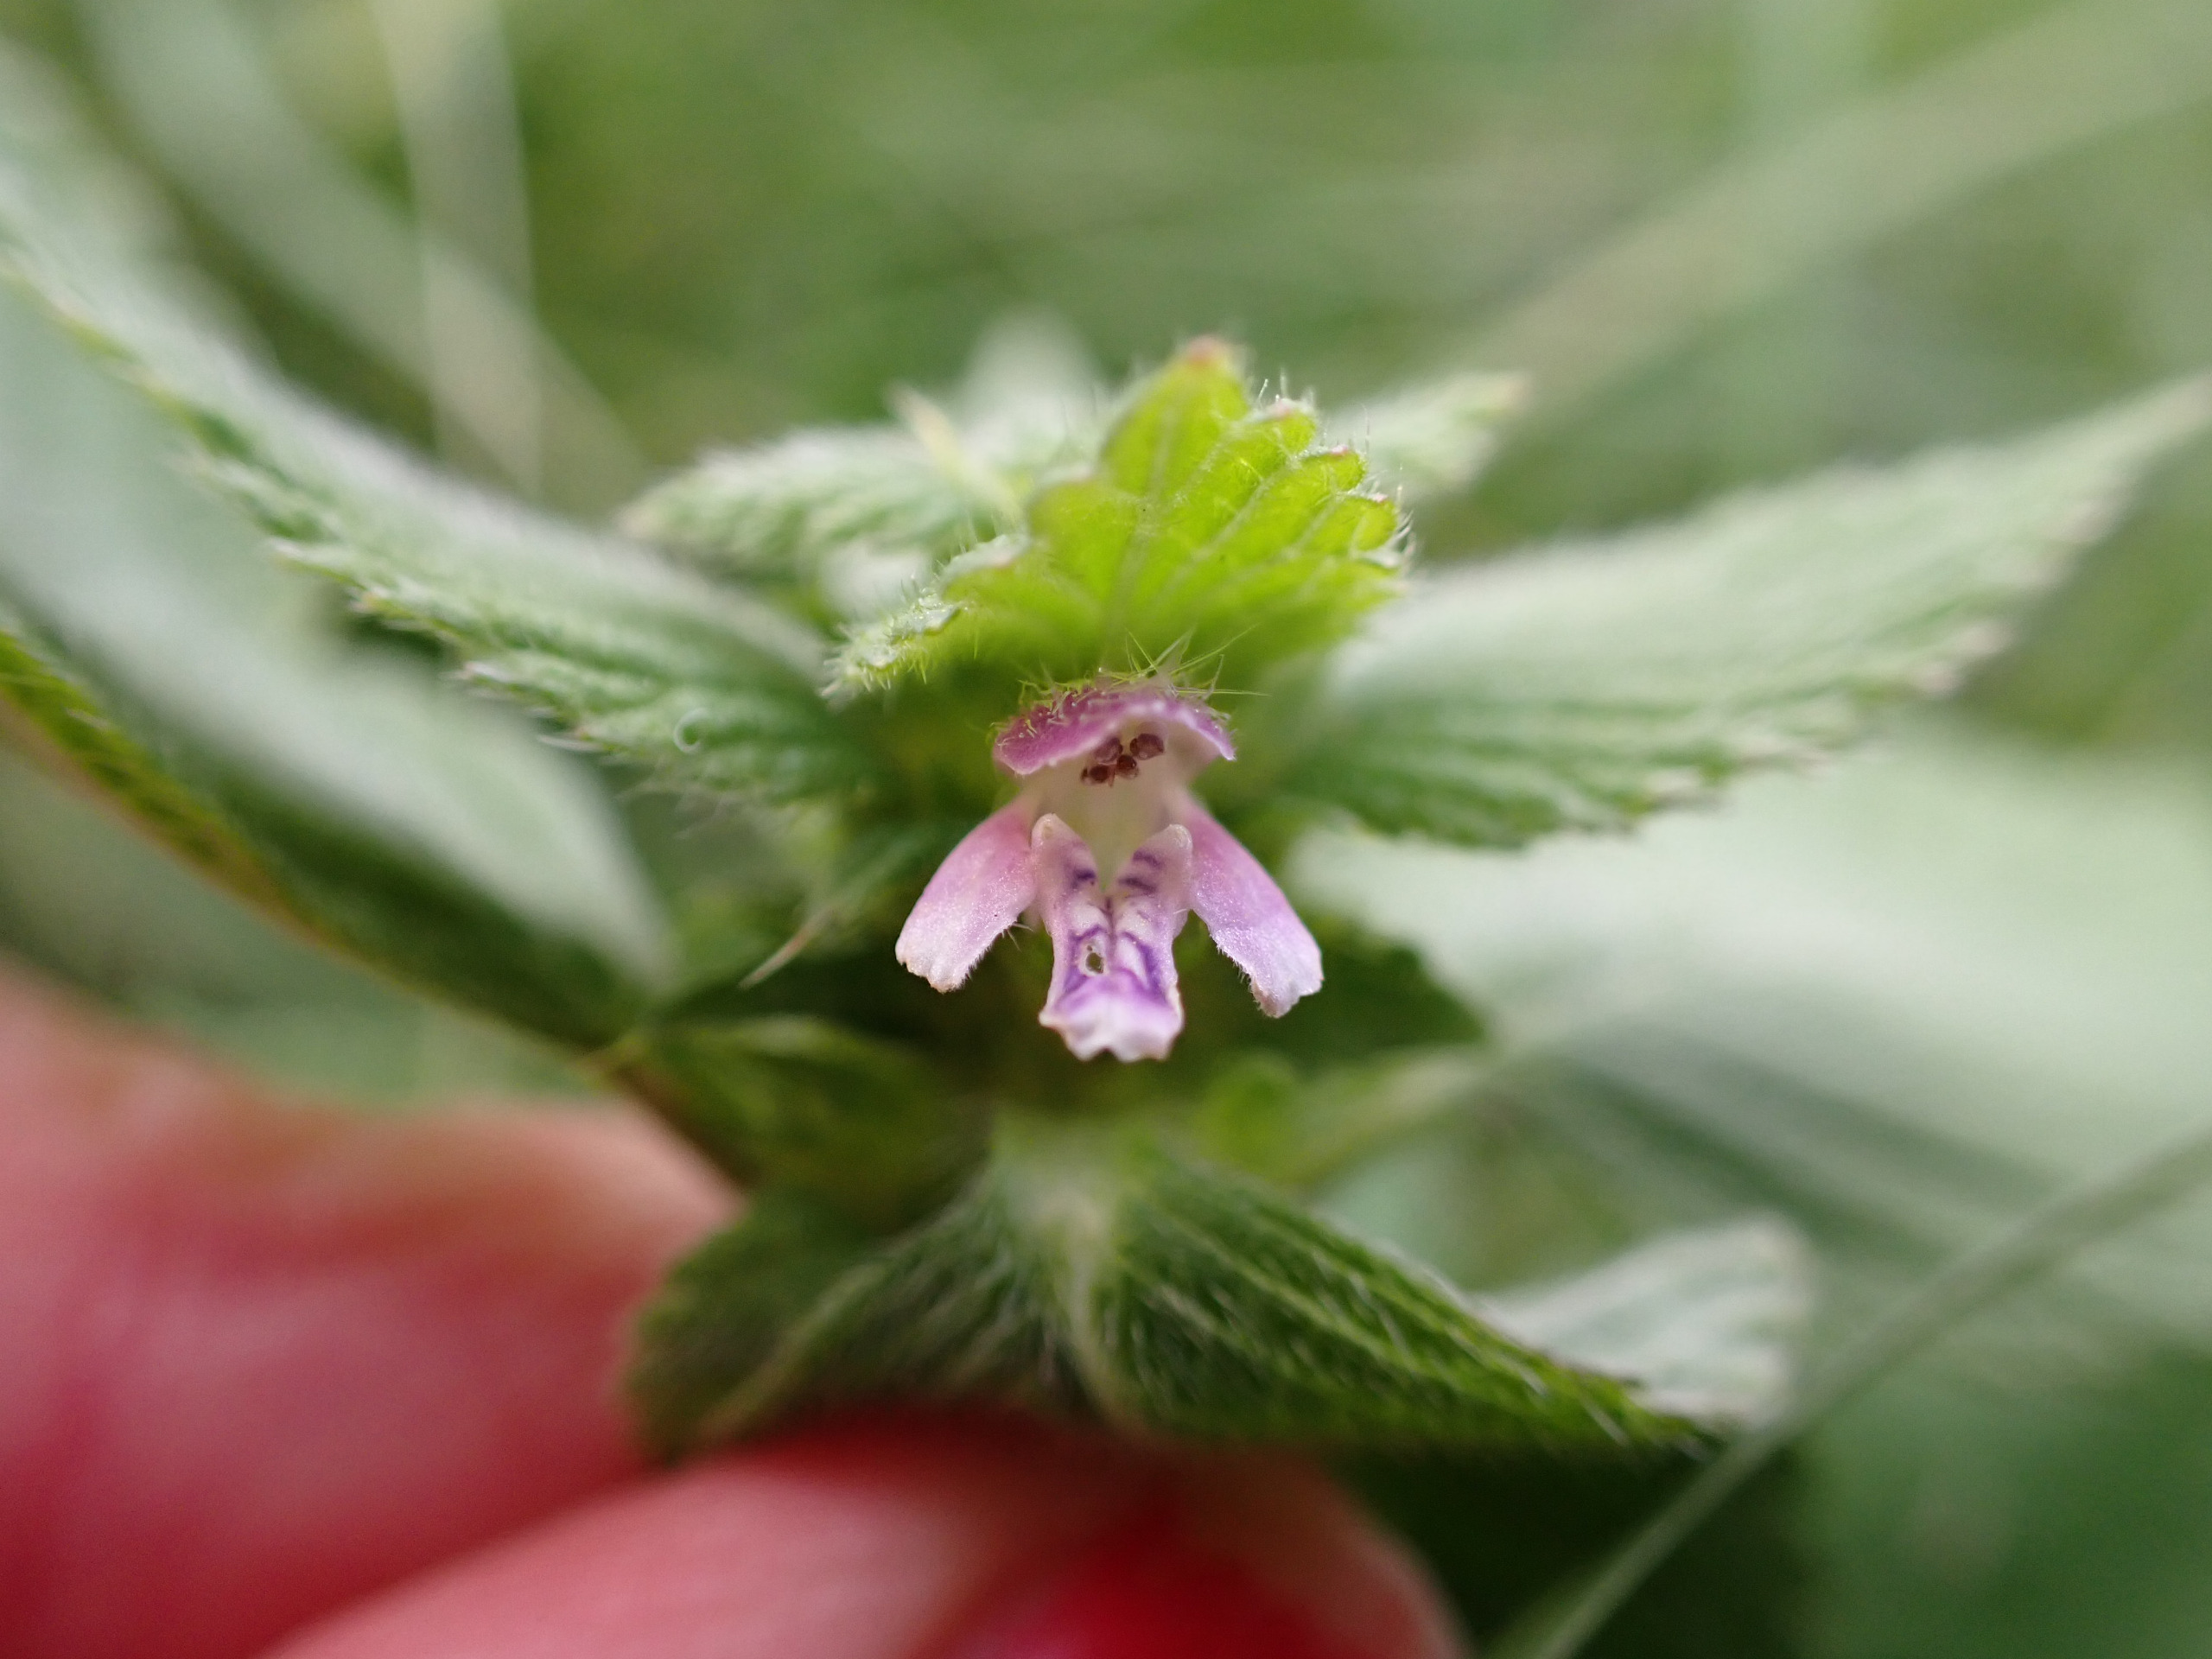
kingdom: Plantae
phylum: Tracheophyta
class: Magnoliopsida
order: Lamiales
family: Lamiaceae
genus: Galeopsis
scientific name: Galeopsis bifida
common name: Skov-hanekro
